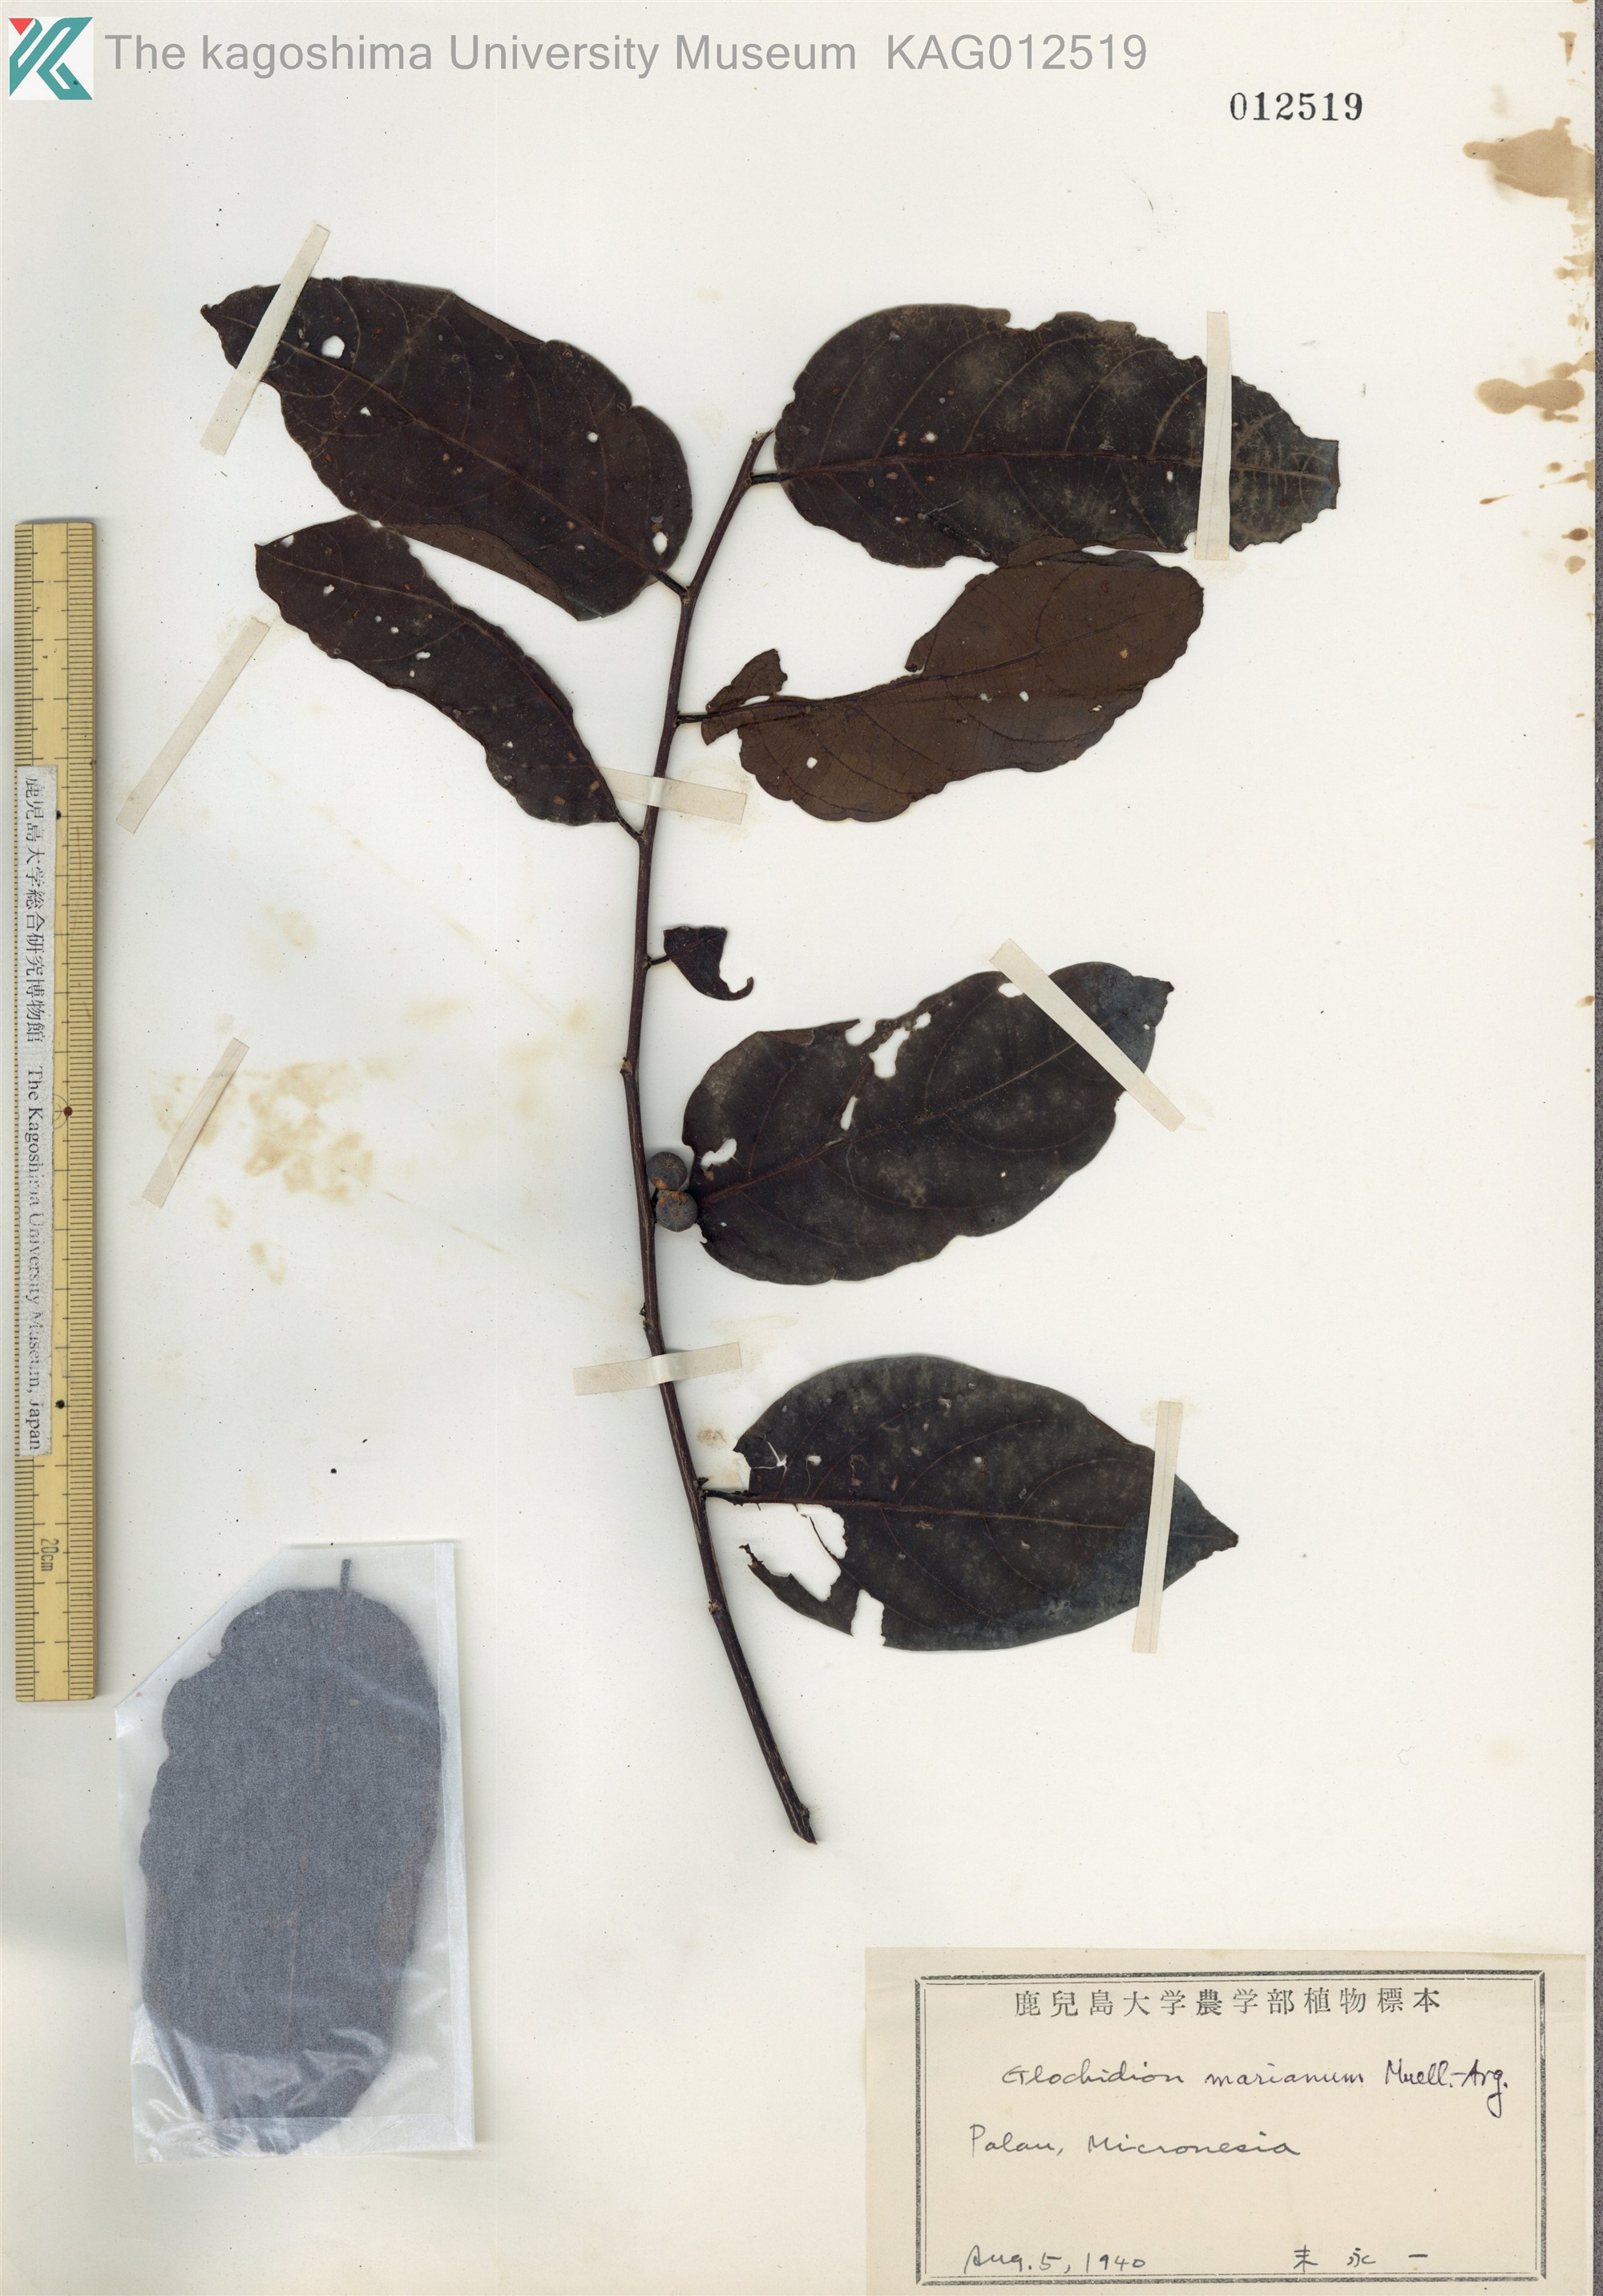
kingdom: Plantae
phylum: Tracheophyta
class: Magnoliopsida
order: Malpighiales
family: Phyllanthaceae
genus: Glochidion
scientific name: Glochidion marianum
